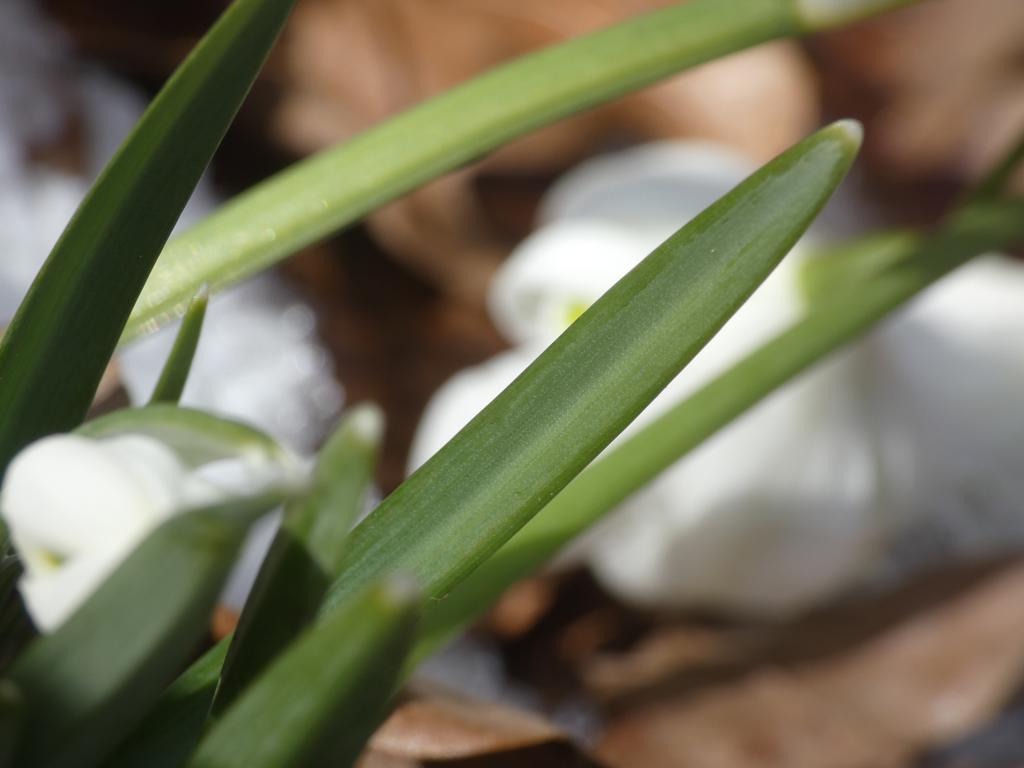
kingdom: Plantae
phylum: Tracheophyta
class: Liliopsida
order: Asparagales
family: Amaryllidaceae
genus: Galanthus
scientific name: Galanthus nivalis
